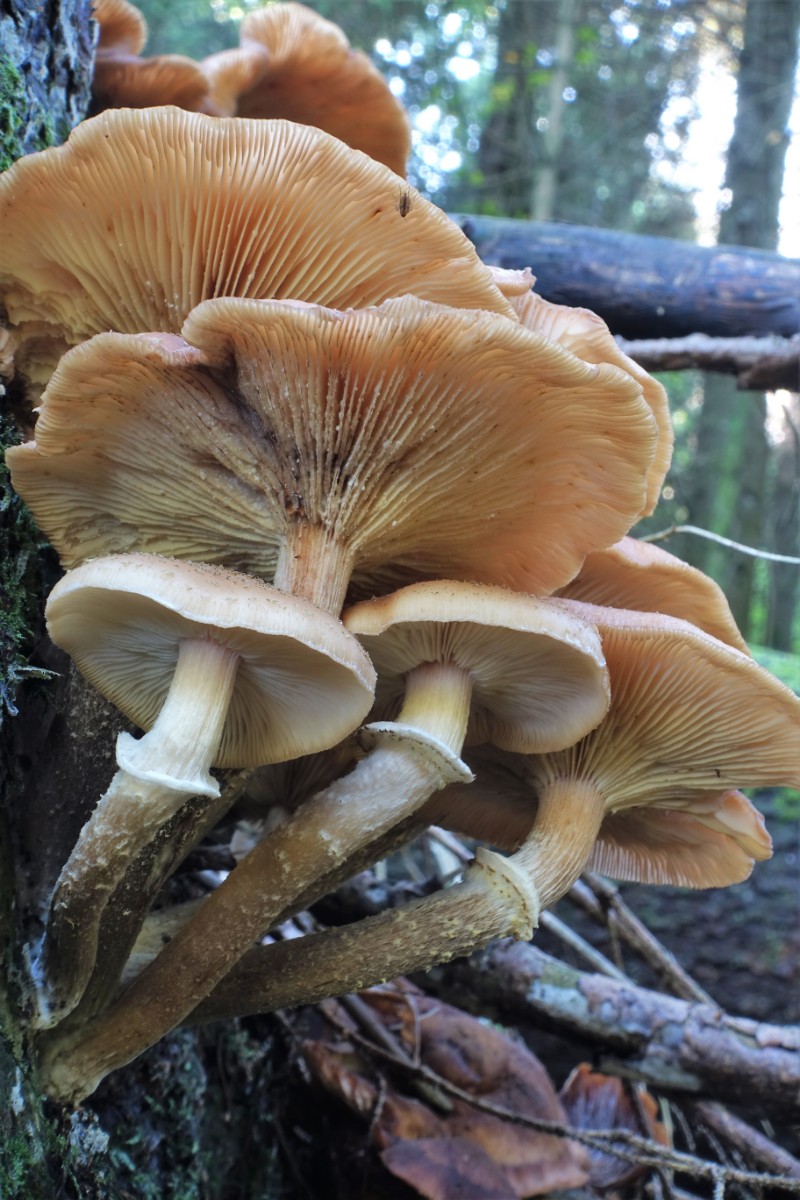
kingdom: Fungi
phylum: Basidiomycota
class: Agaricomycetes
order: Agaricales
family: Physalacriaceae
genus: Armillaria
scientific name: Armillaria ostoyae
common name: mørk honningsvamp
